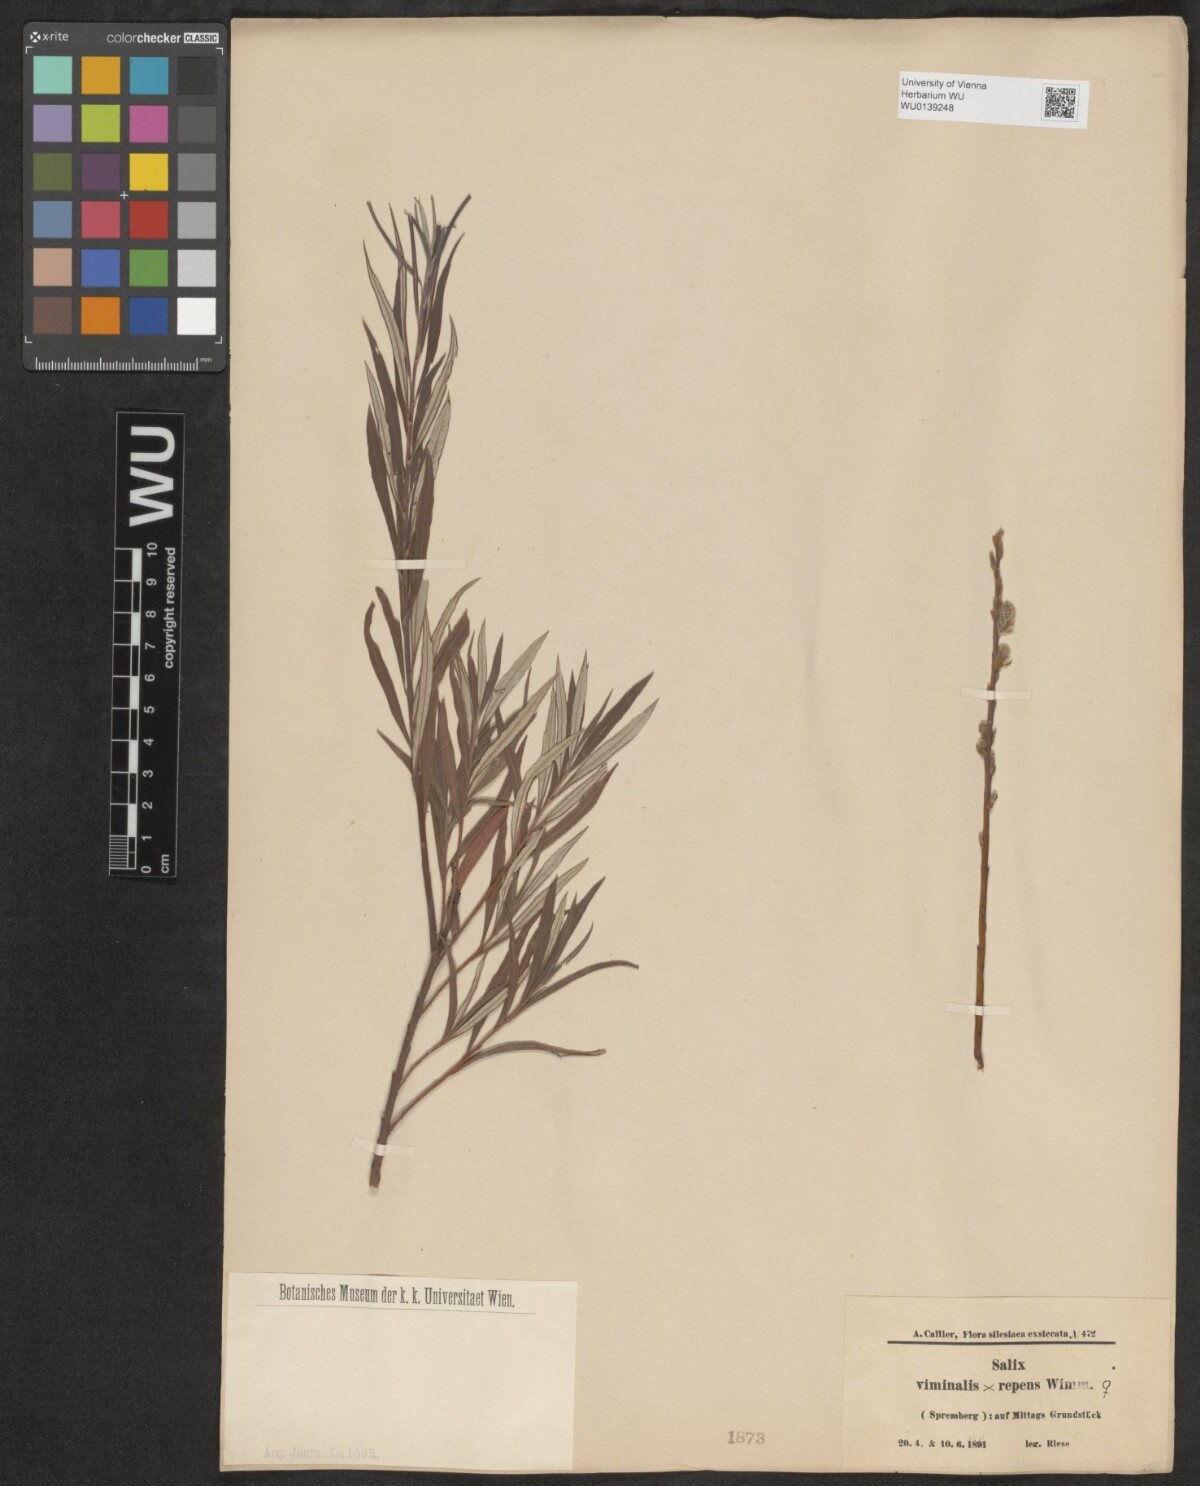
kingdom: Plantae
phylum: Tracheophyta
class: Magnoliopsida
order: Malpighiales
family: Salicaceae
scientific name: Salicaceae
